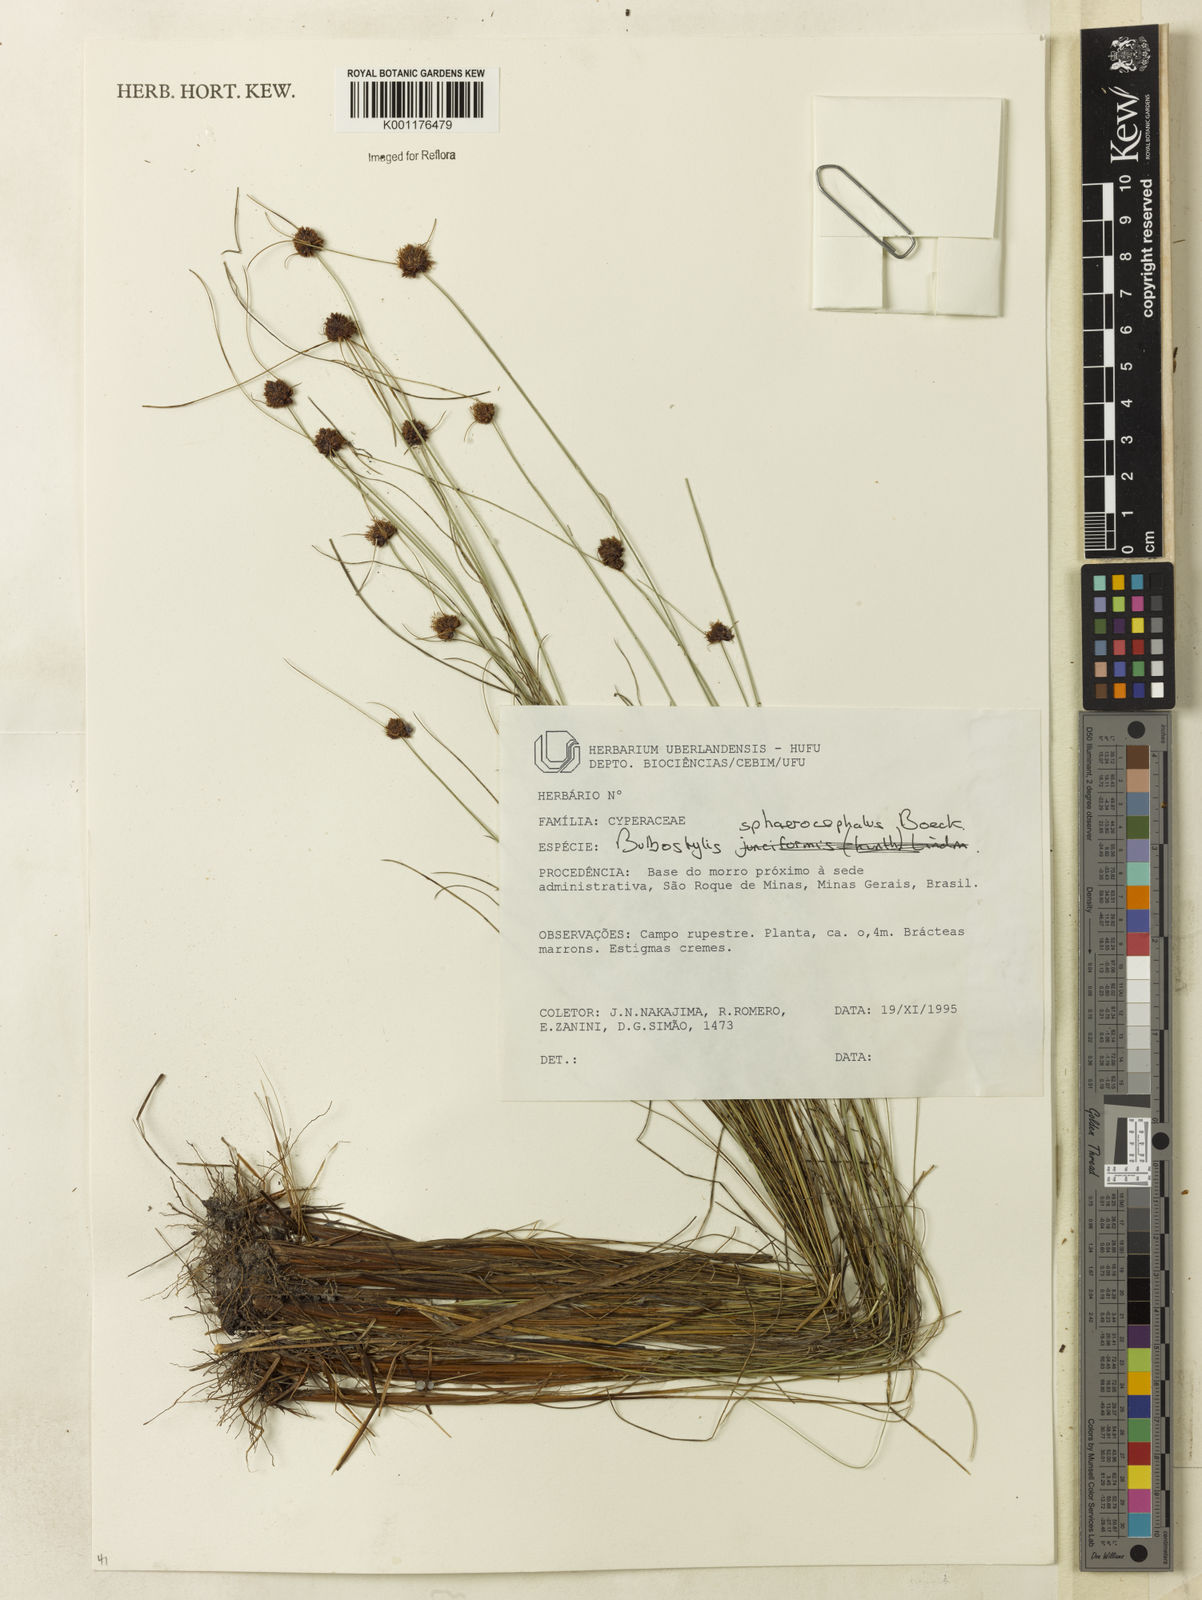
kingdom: Plantae
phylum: Tracheophyta
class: Liliopsida
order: Poales
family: Cyperaceae
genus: Bulbostylis
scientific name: Bulbostylis
